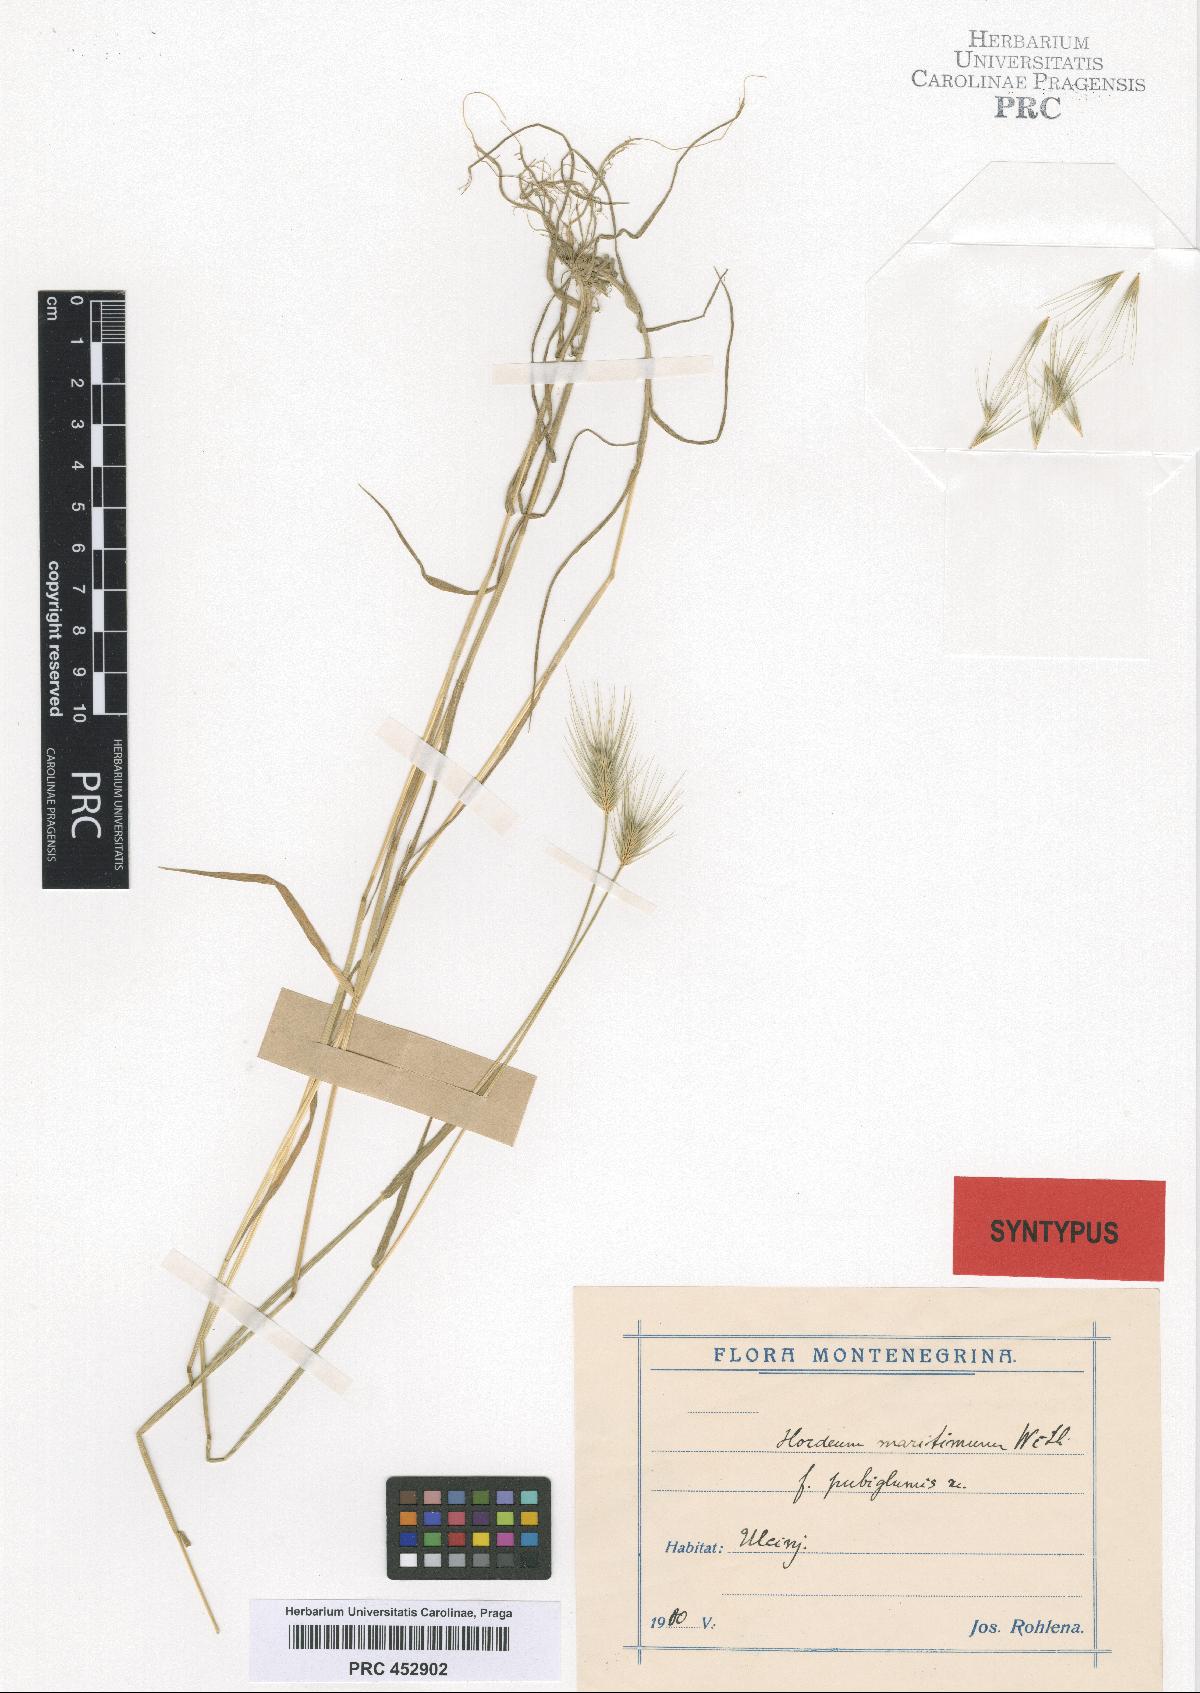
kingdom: Plantae
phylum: Tracheophyta
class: Liliopsida
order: Poales
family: Poaceae
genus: Hordeum
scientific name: Hordeum maritimum
